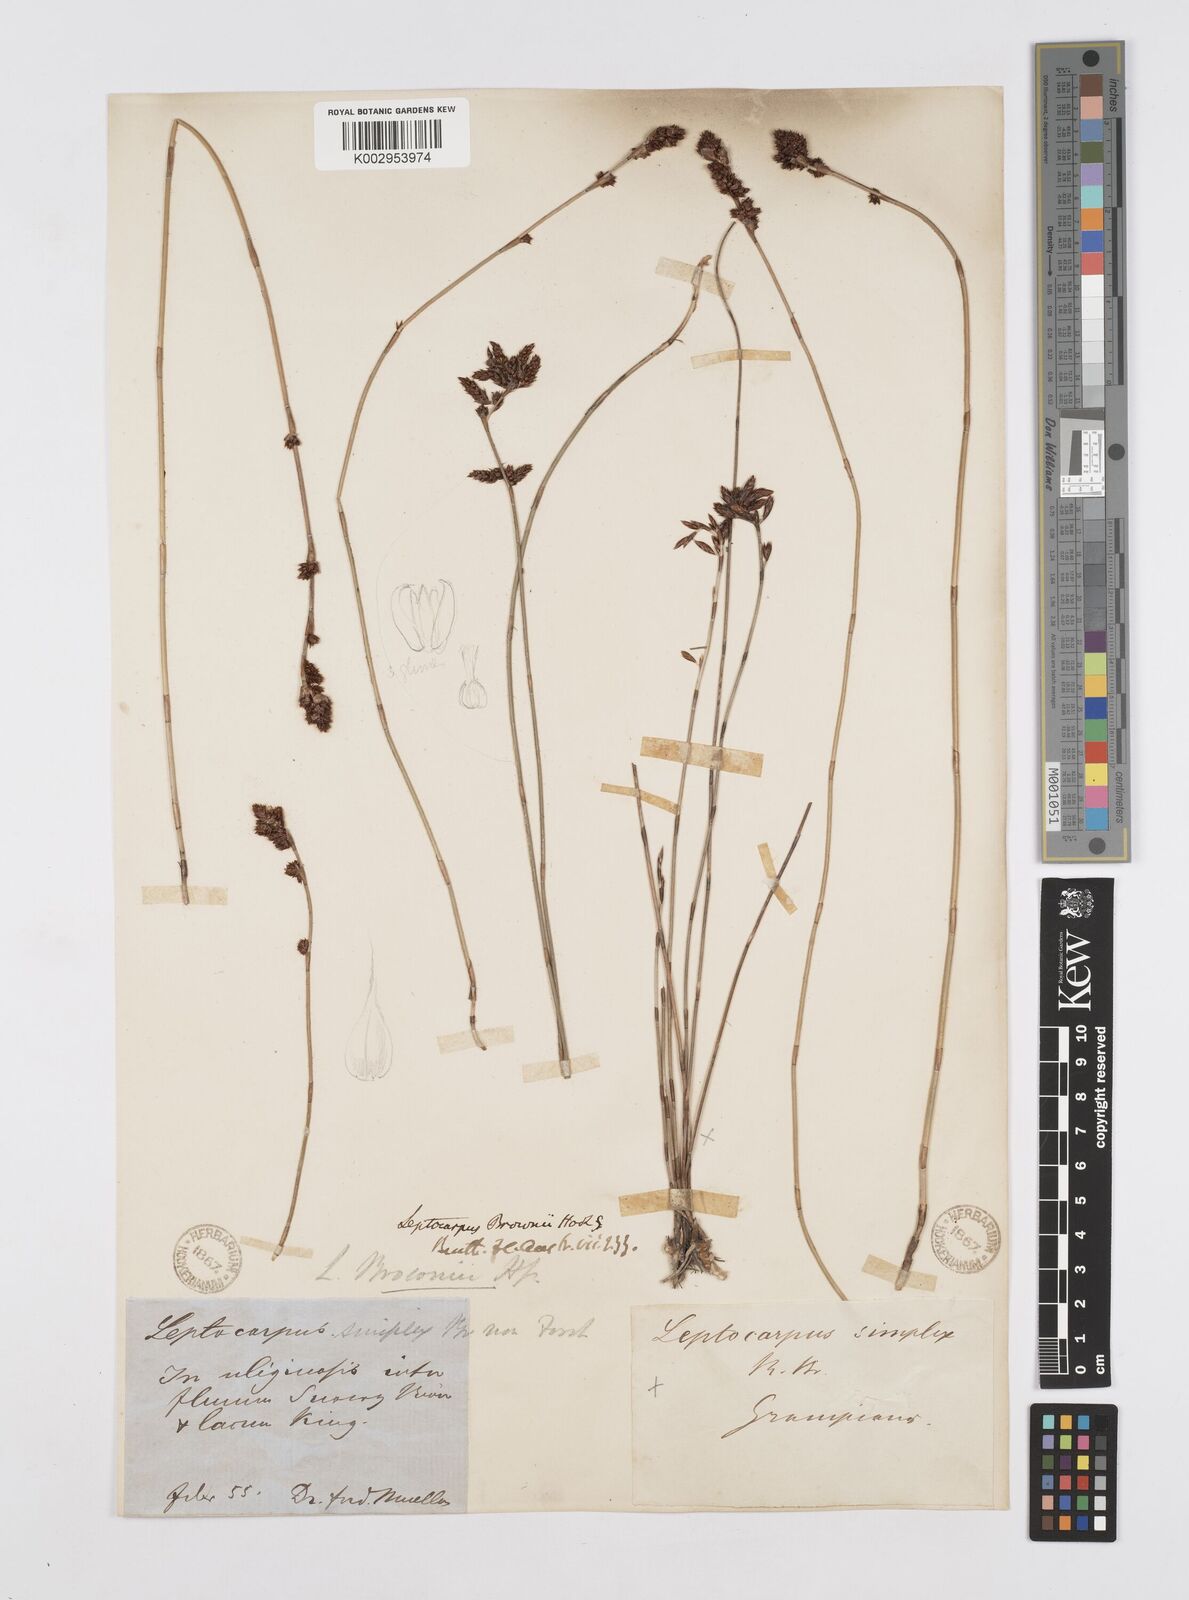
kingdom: Plantae
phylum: Tracheophyta
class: Liliopsida
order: Poales
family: Restionaceae
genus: Apodasmia
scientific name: Apodasmia brownii
